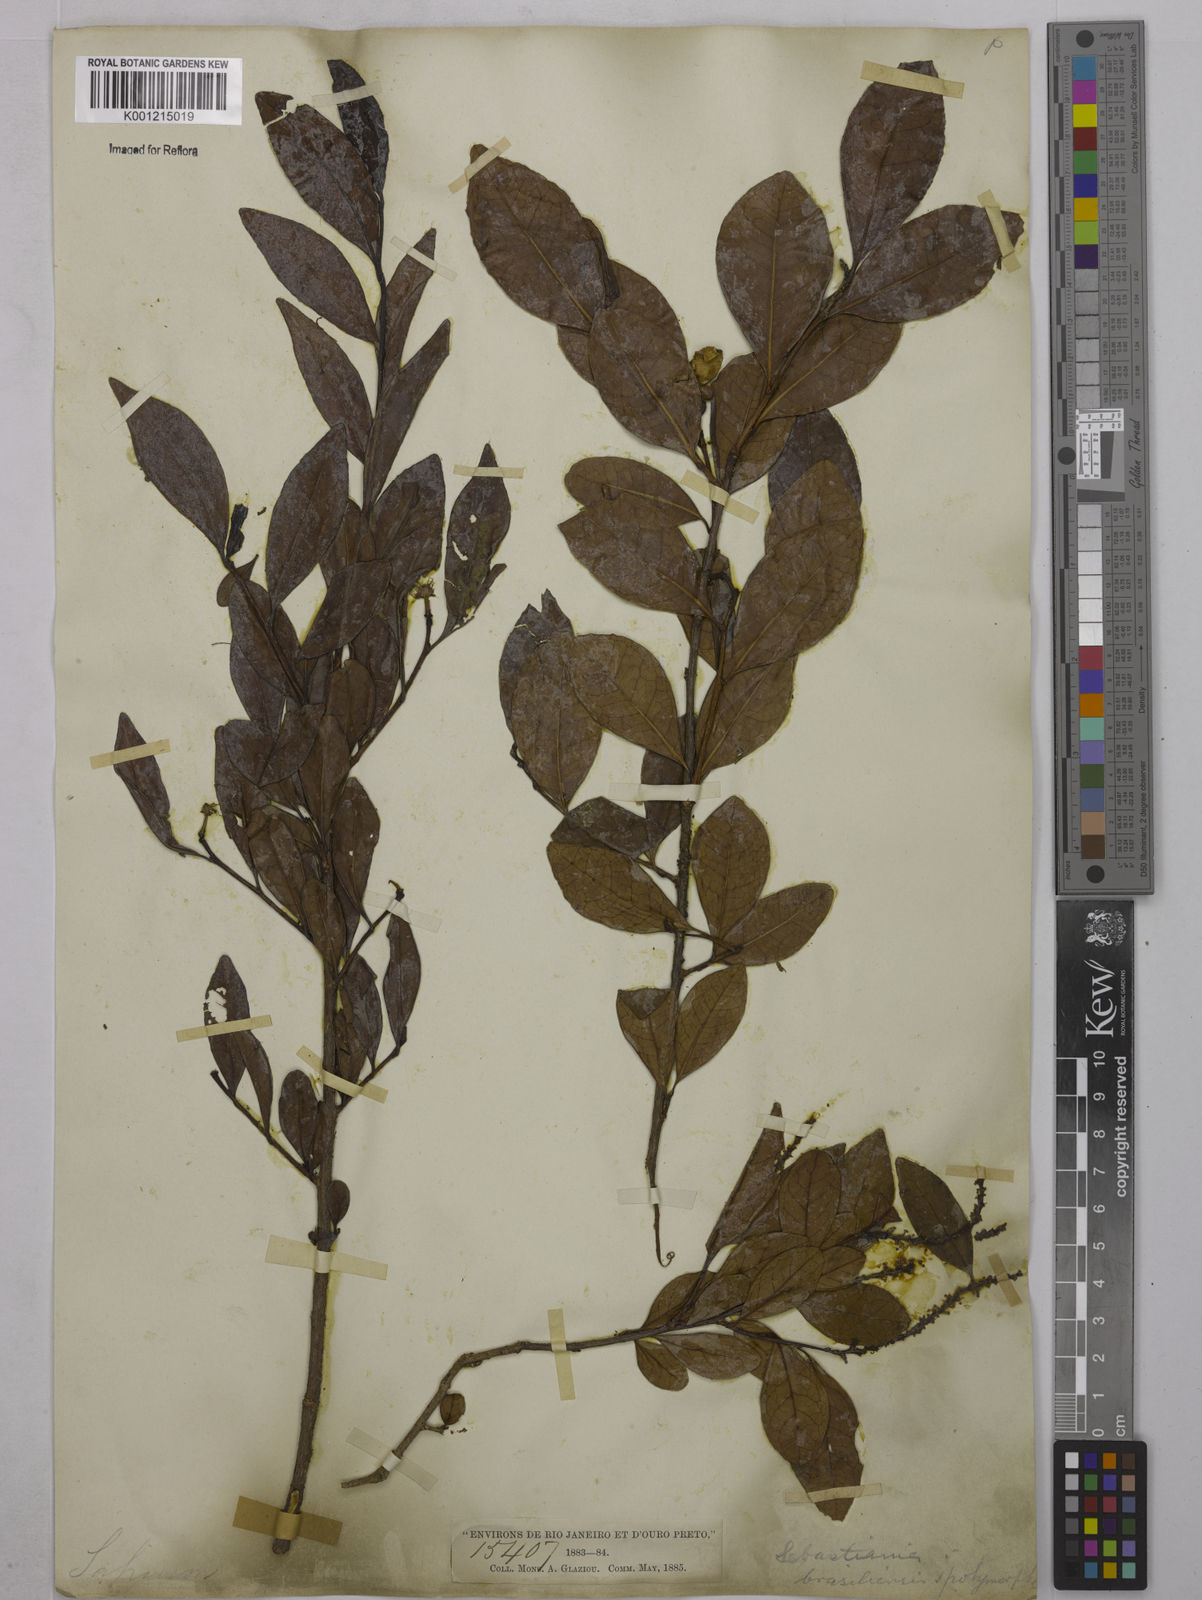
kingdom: Plantae
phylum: Tracheophyta
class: Magnoliopsida
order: Malpighiales
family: Euphorbiaceae
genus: Sebastiania
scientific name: Sebastiania brasiliensis
